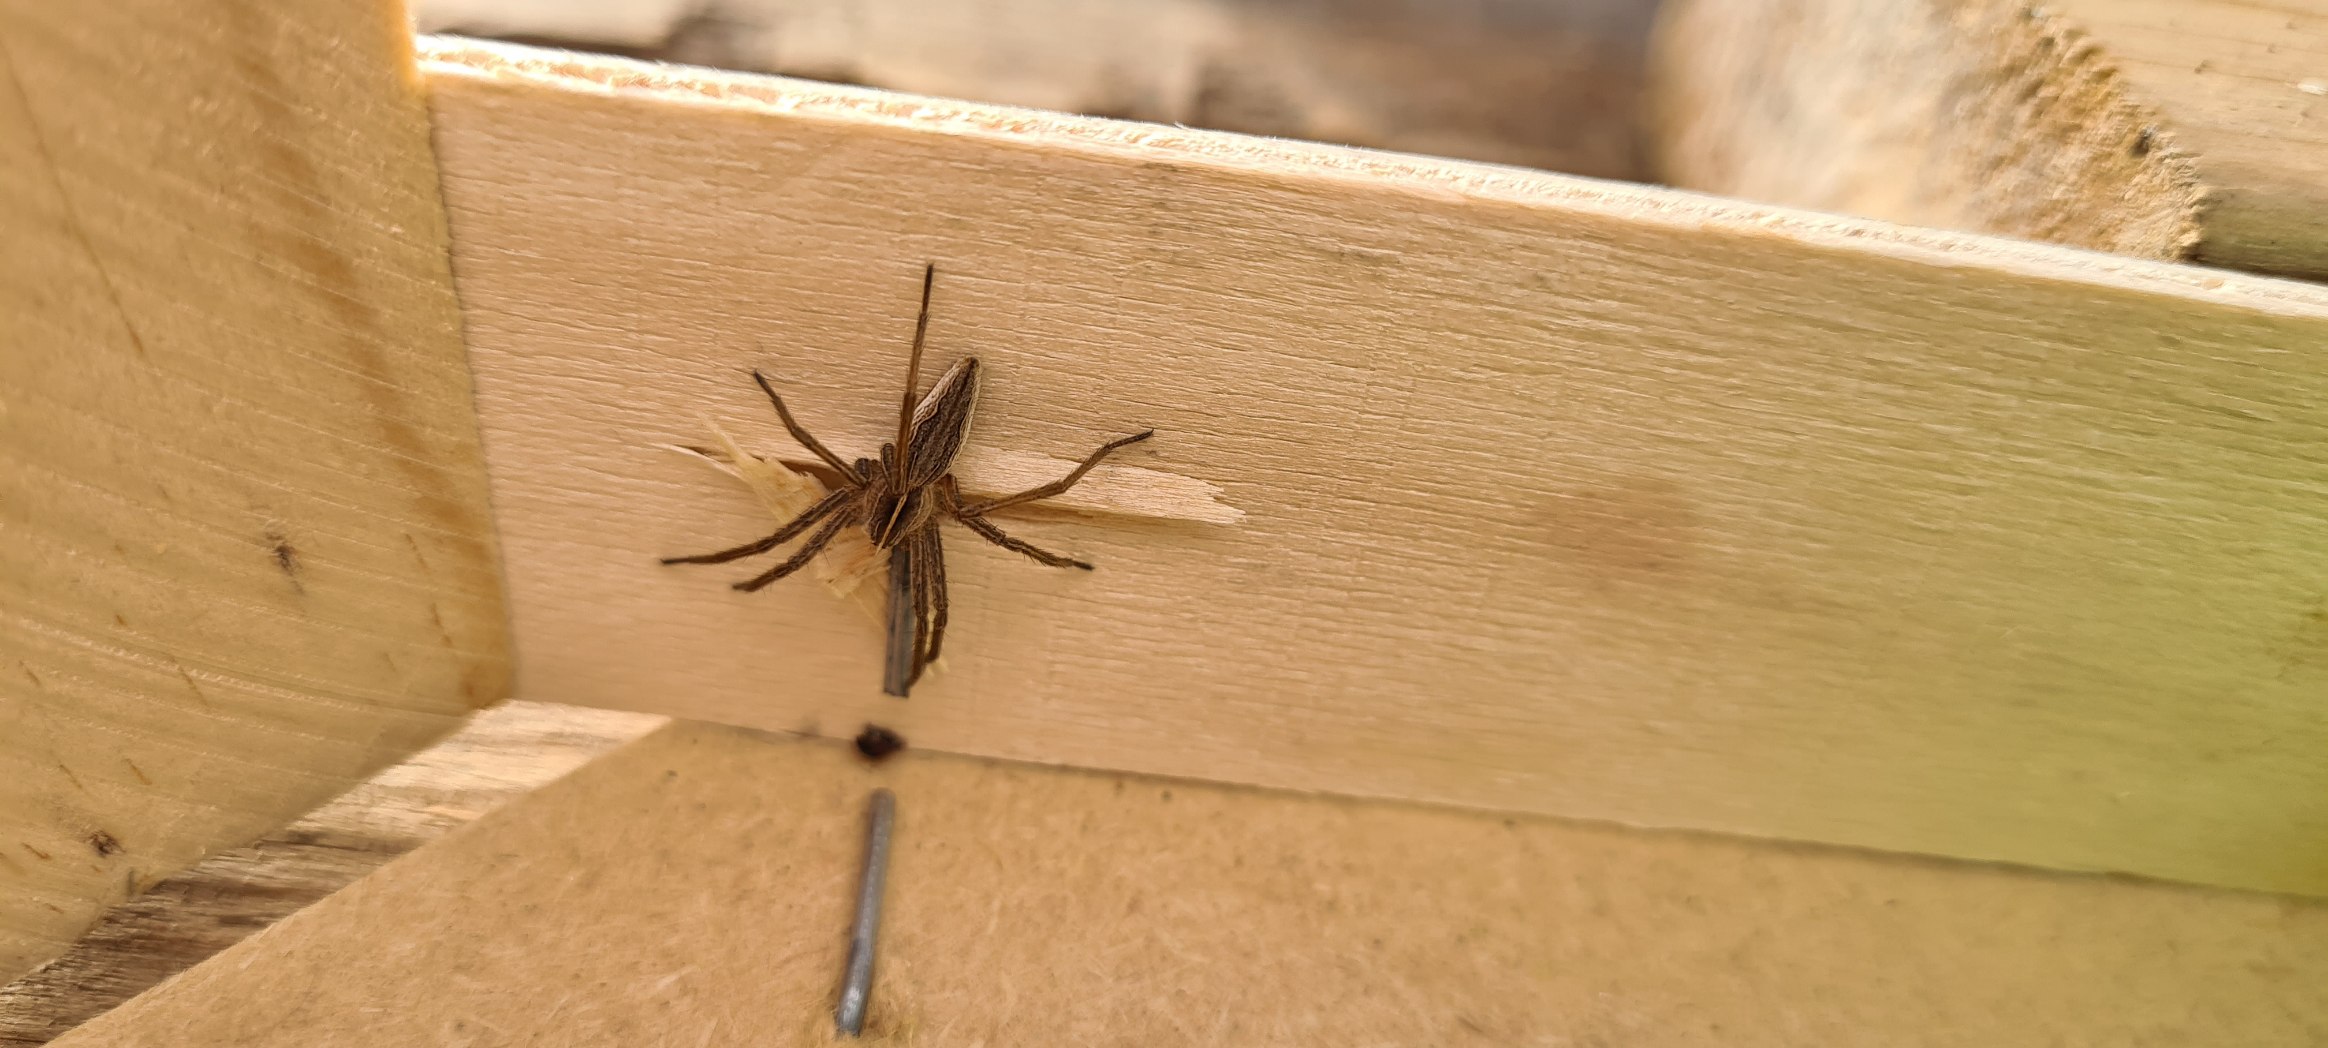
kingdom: Animalia
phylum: Arthropoda
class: Arachnida
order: Araneae
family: Pisauridae
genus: Pisaura
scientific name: Pisaura mirabilis
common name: Almindelig rovedderkop
